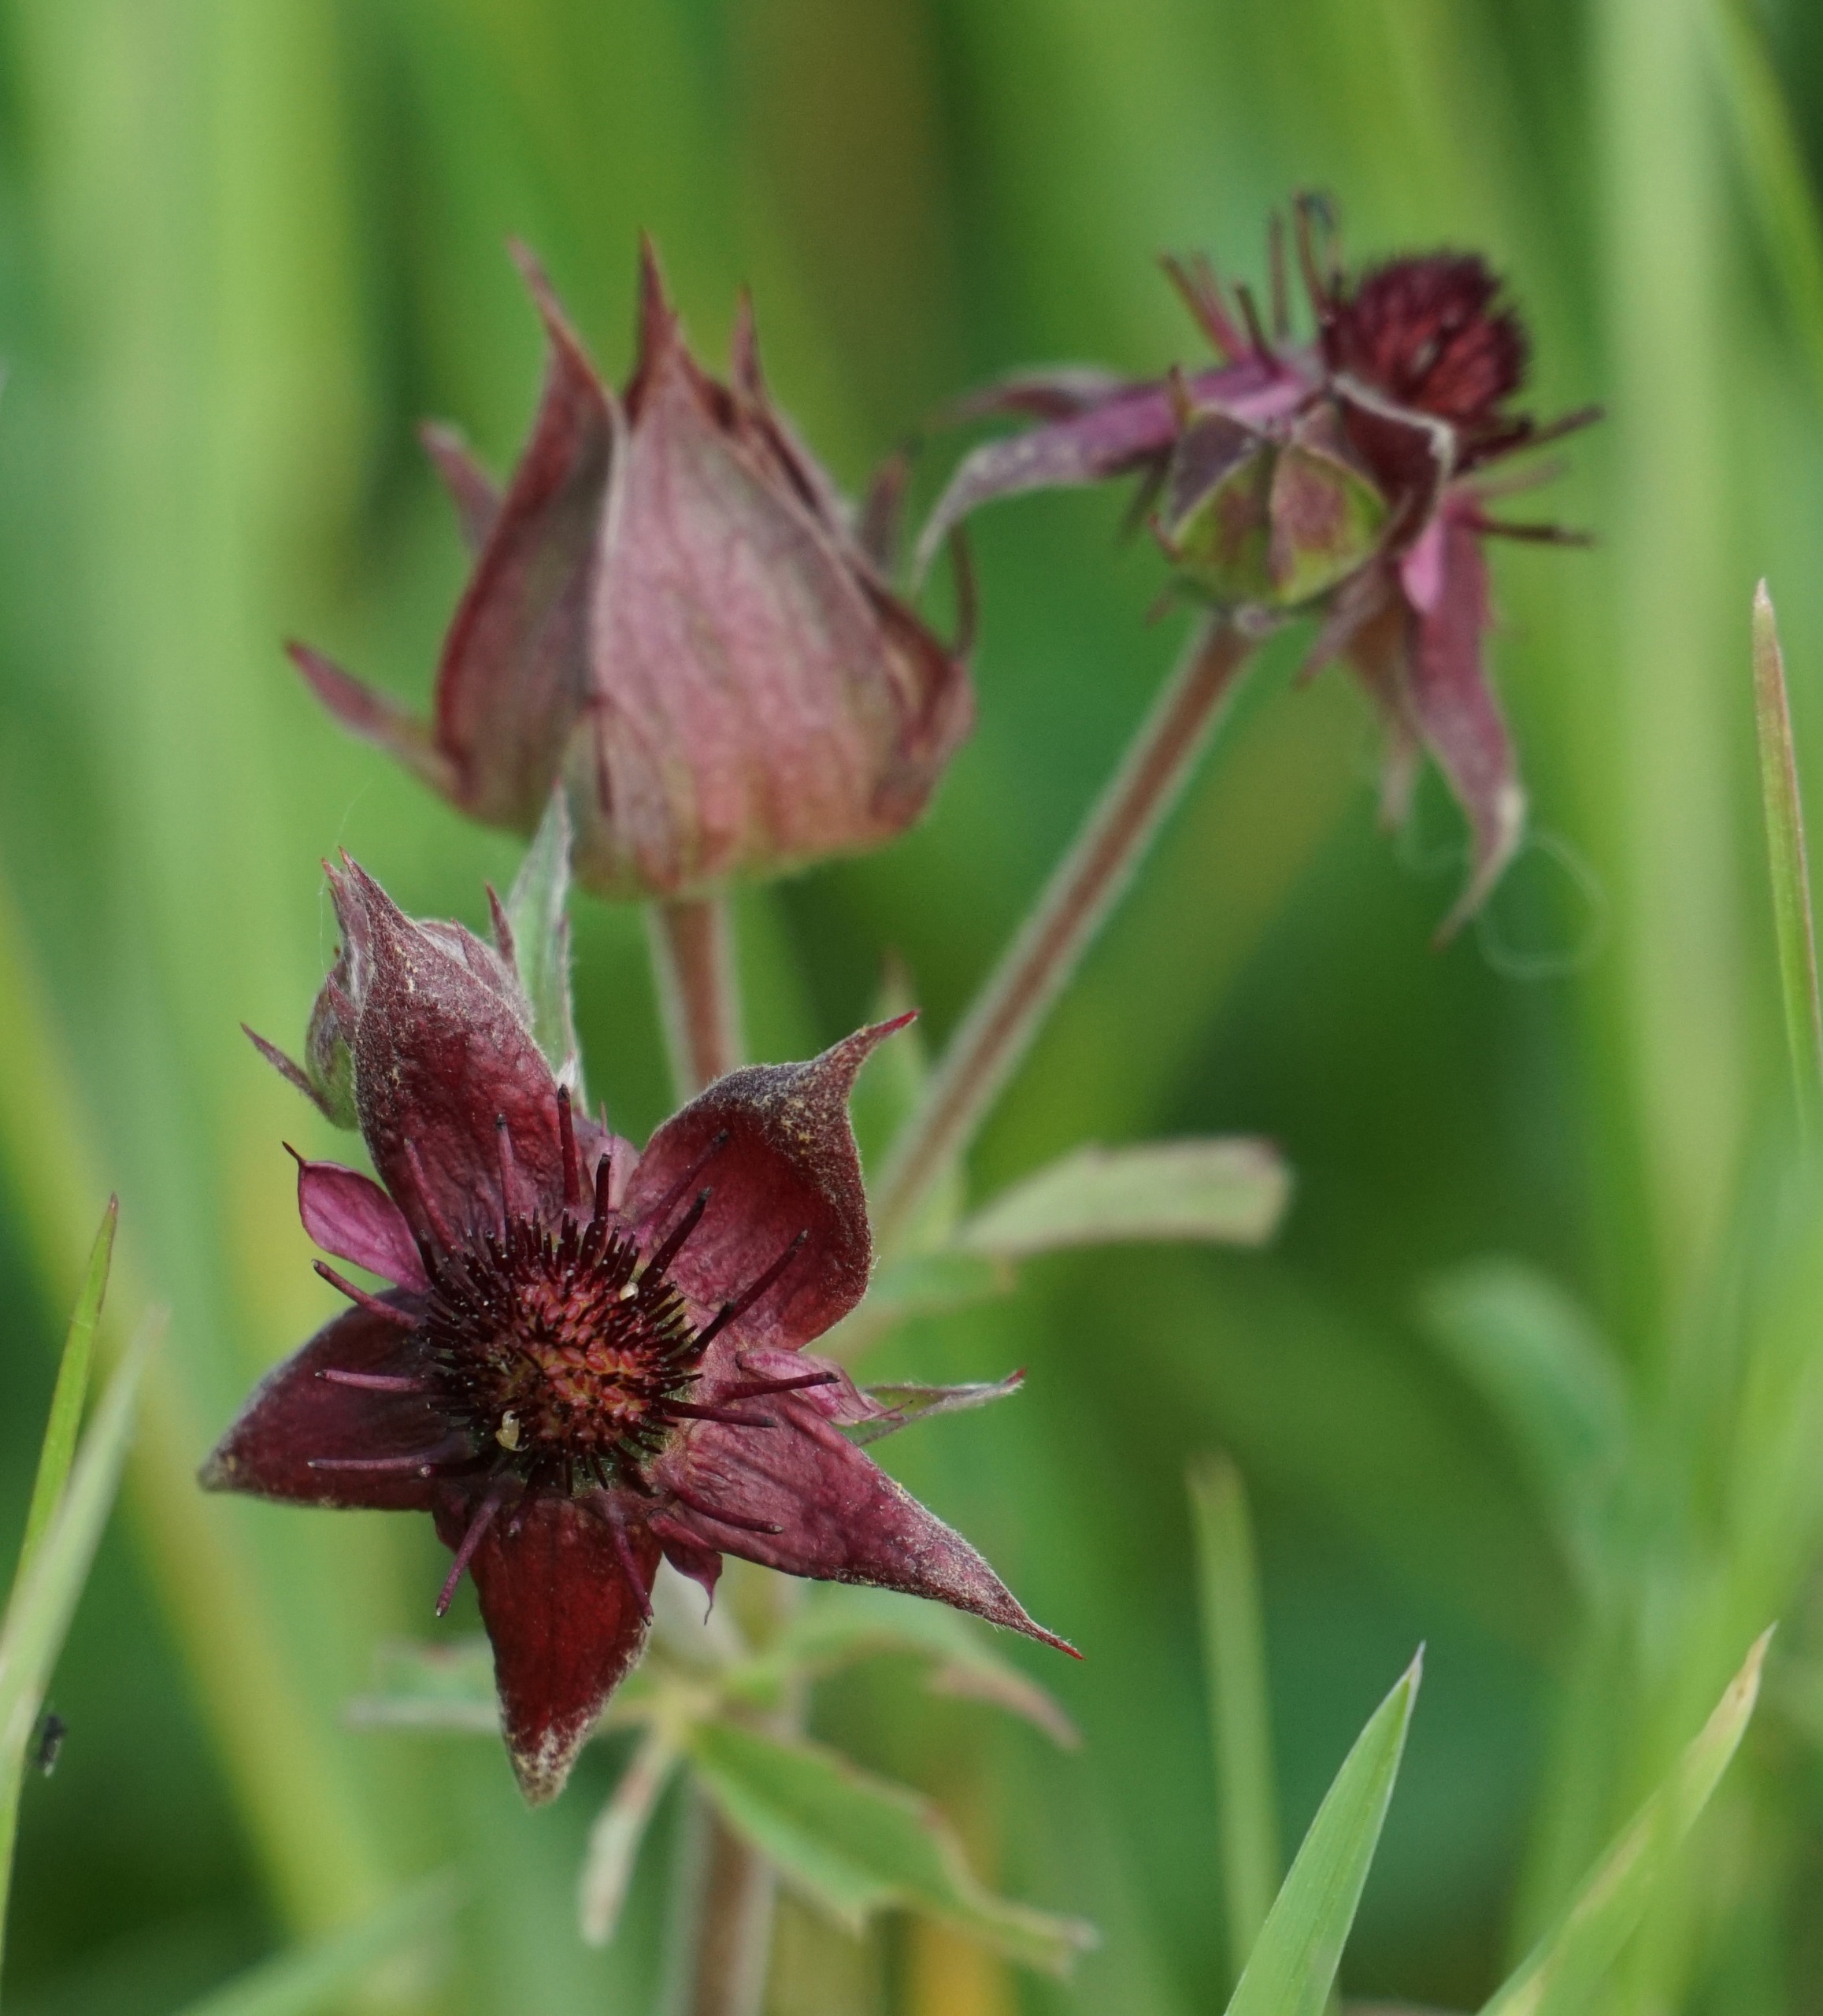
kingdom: Plantae
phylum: Tracheophyta
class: Magnoliopsida
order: Rosales
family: Rosaceae
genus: Comarum
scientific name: Comarum palustre
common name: Kragefod
